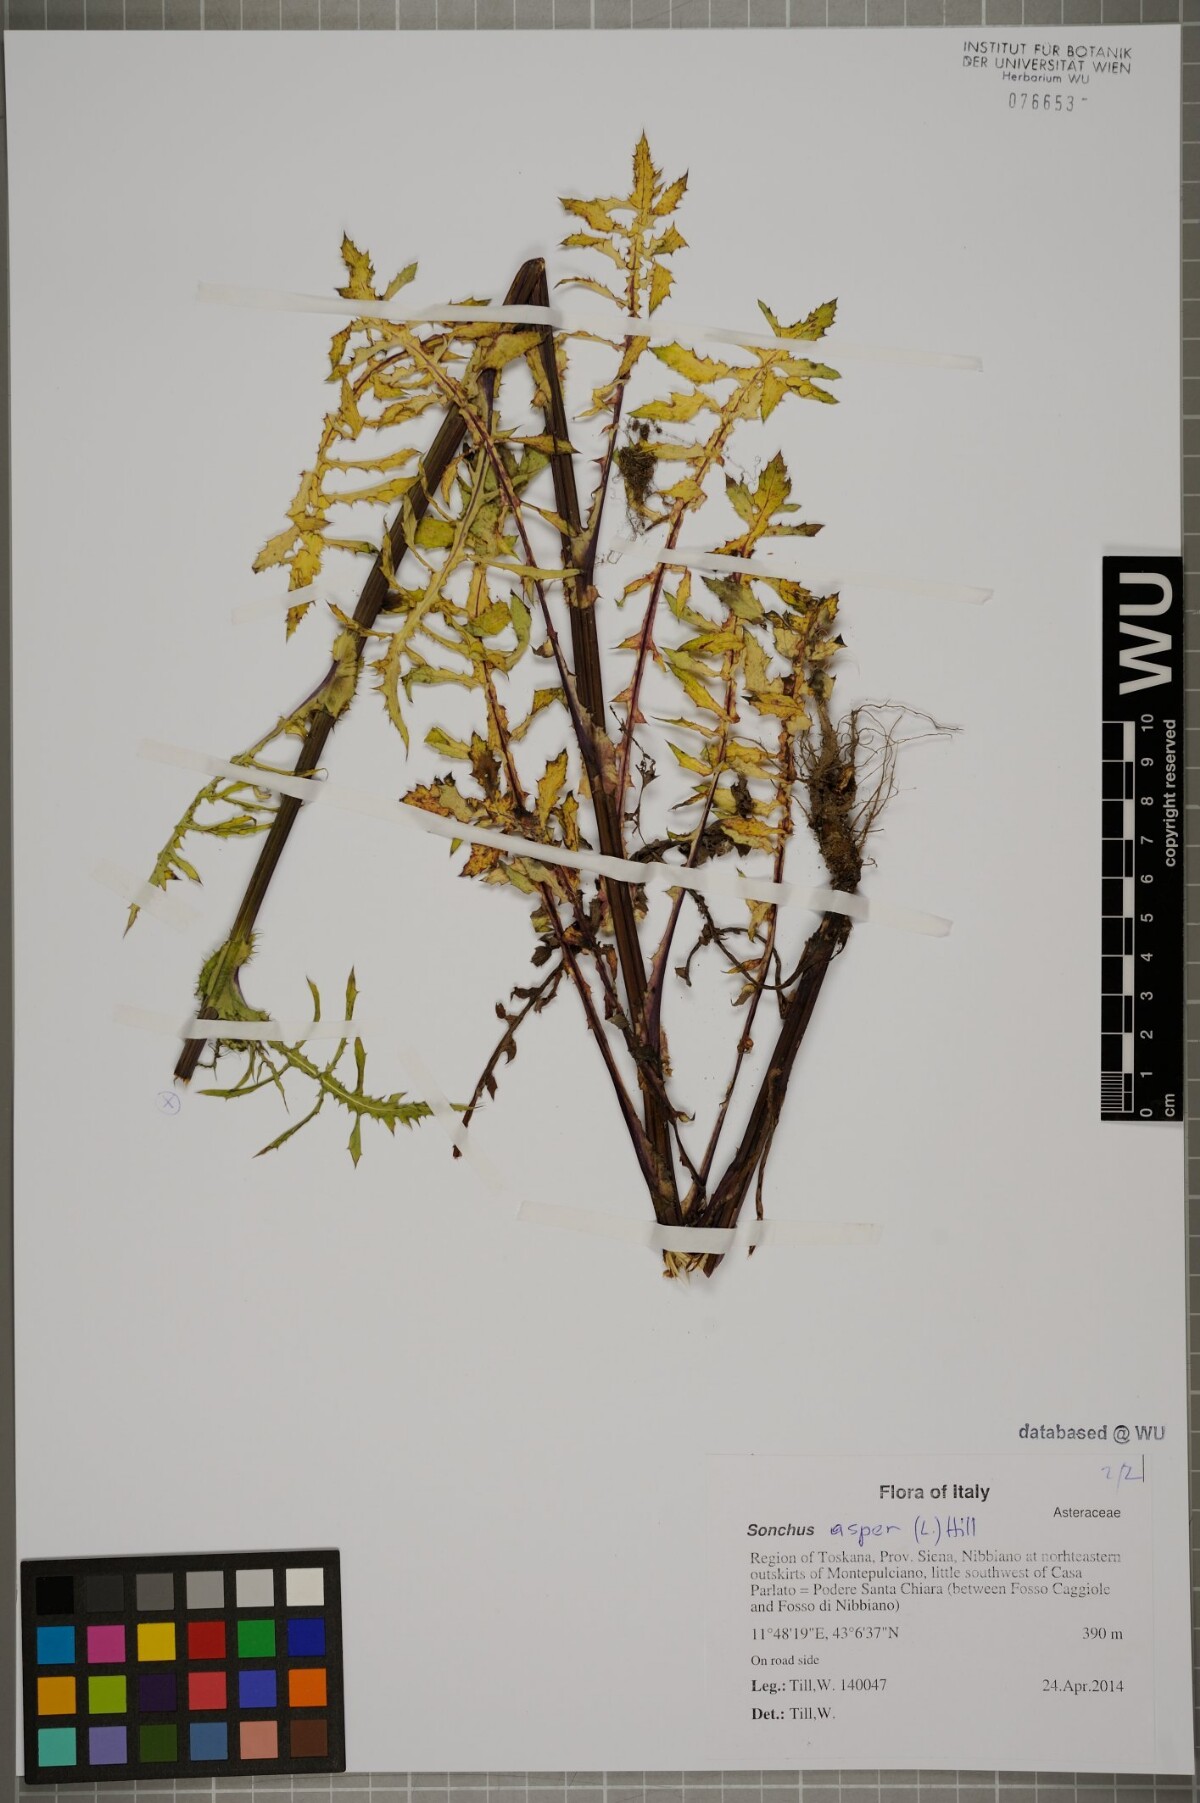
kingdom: Plantae
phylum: Tracheophyta
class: Magnoliopsida
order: Asterales
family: Asteraceae
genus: Sonchus
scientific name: Sonchus asper
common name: Prickly sow-thistle
